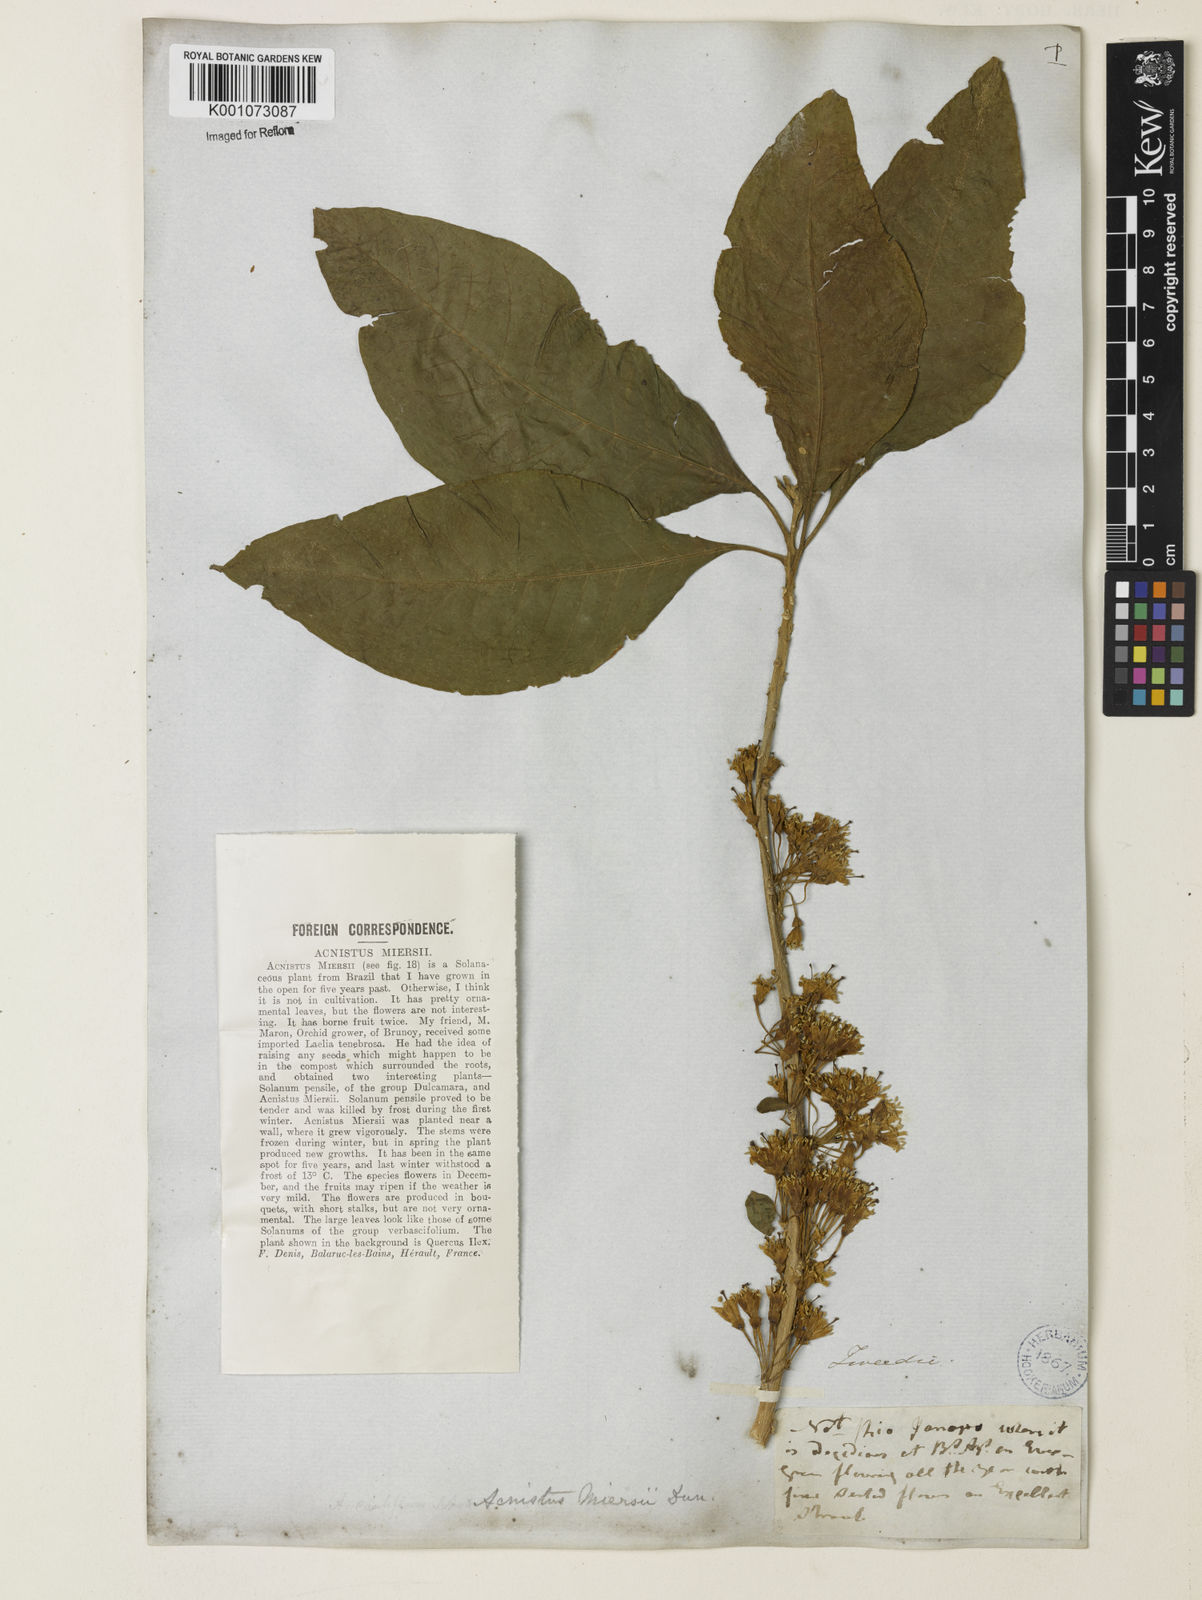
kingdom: Plantae
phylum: Tracheophyta
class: Magnoliopsida
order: Solanales
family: Solanaceae
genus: Iochroma
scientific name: Iochroma arborescens
